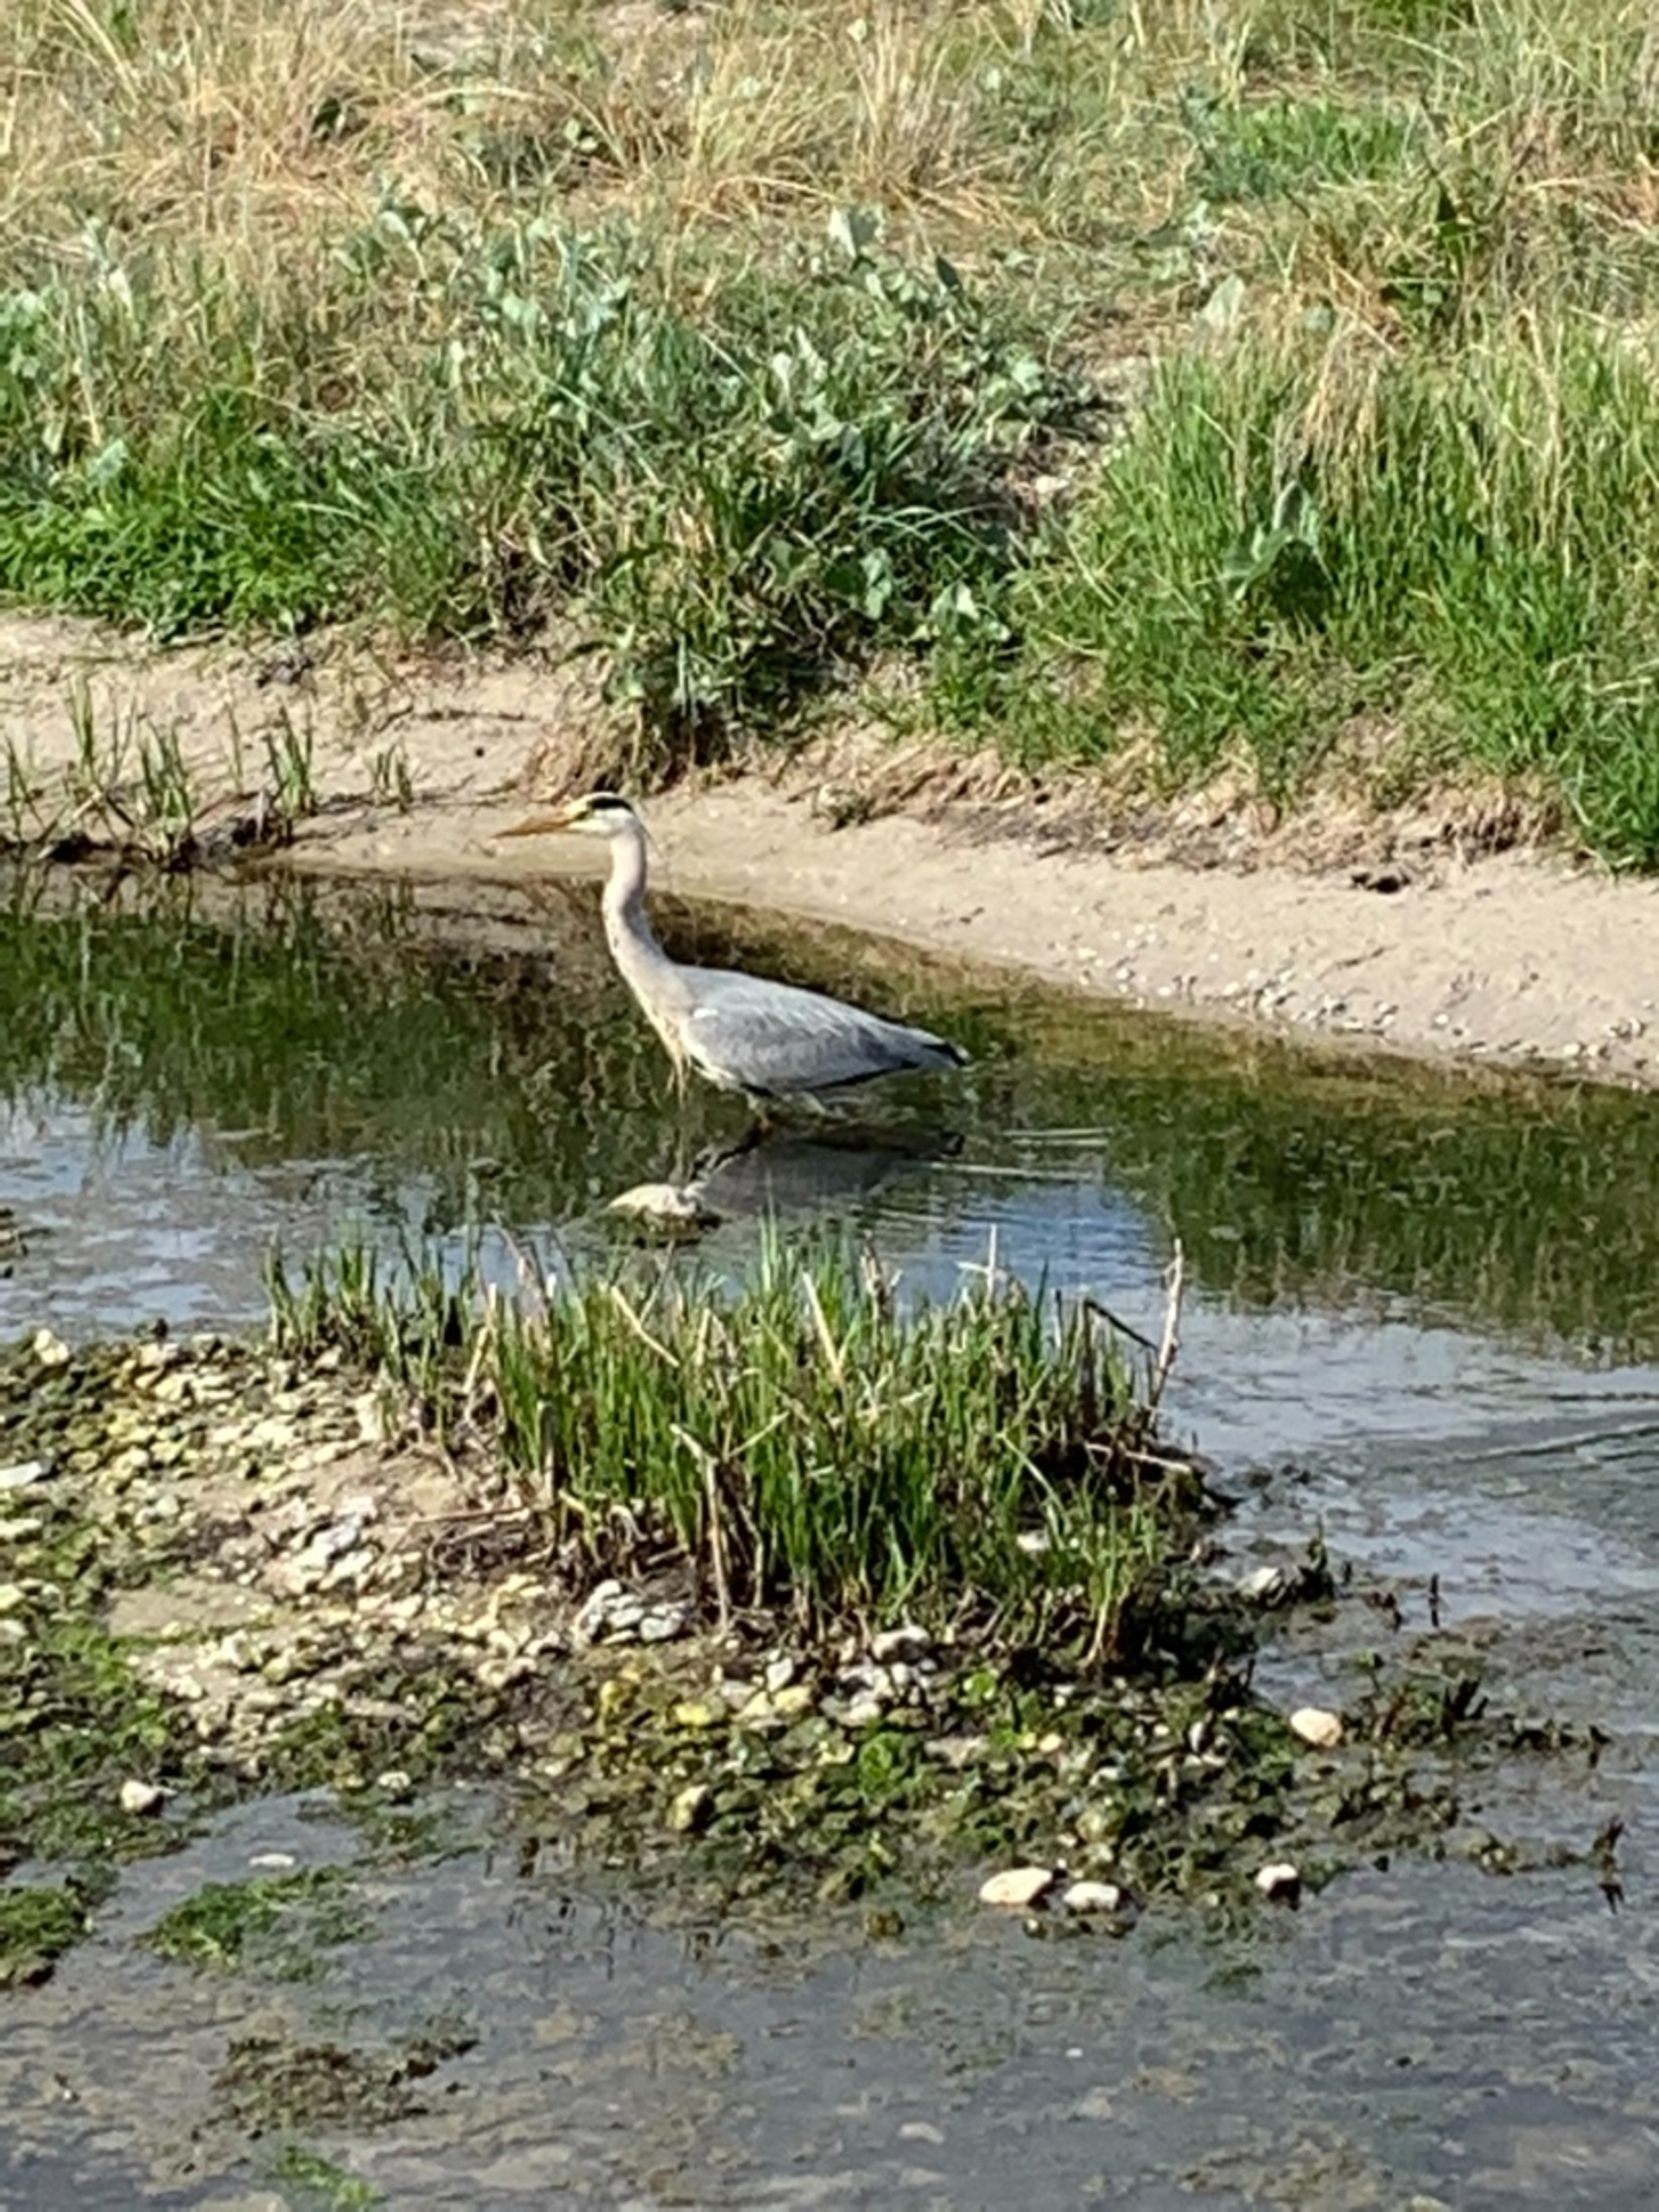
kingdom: Animalia
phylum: Chordata
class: Aves
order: Pelecaniformes
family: Ardeidae
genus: Ardea
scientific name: Ardea cinerea
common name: Fiskehejre
